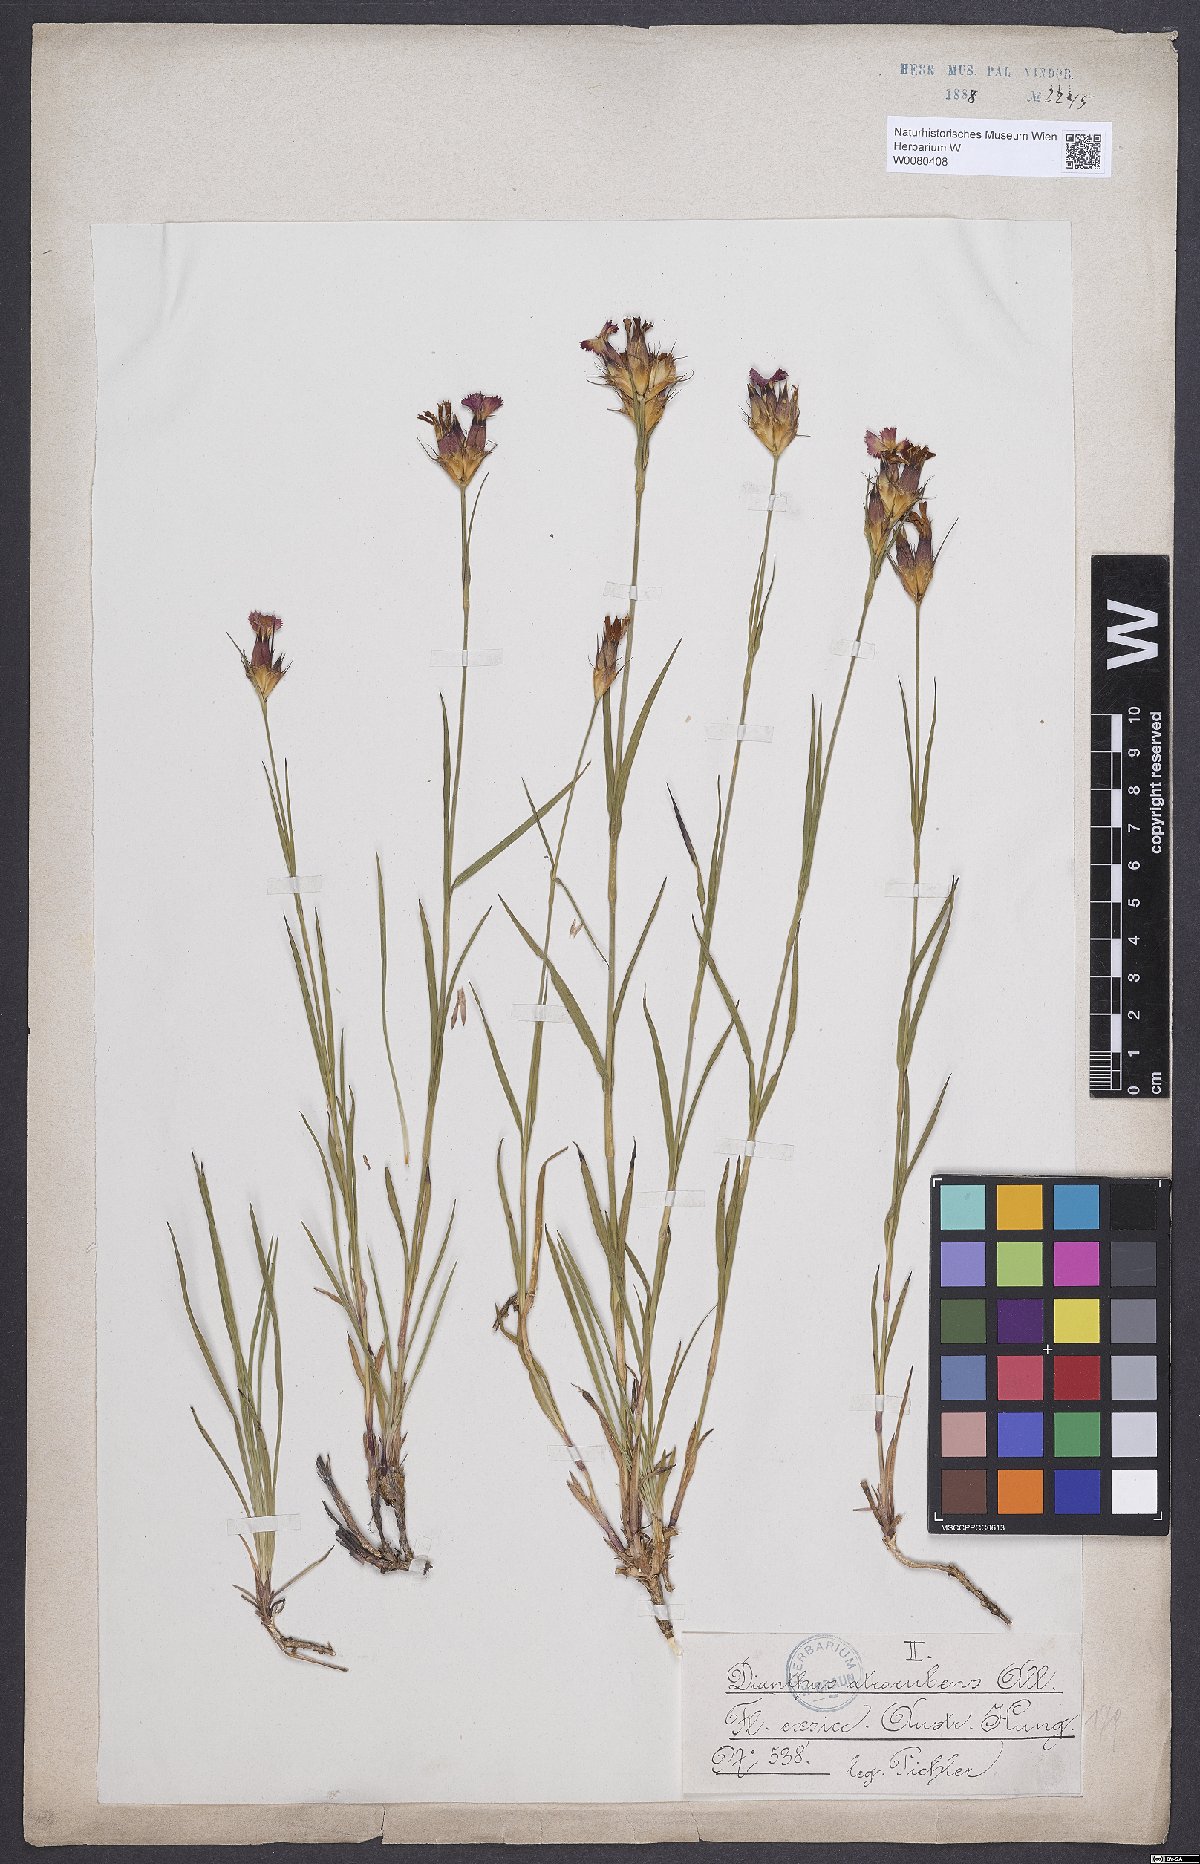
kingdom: Plantae
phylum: Tracheophyta
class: Magnoliopsida
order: Caryophyllales
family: Caryophyllaceae
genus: Dianthus
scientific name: Dianthus carthusianorum
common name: Carthusian pink
